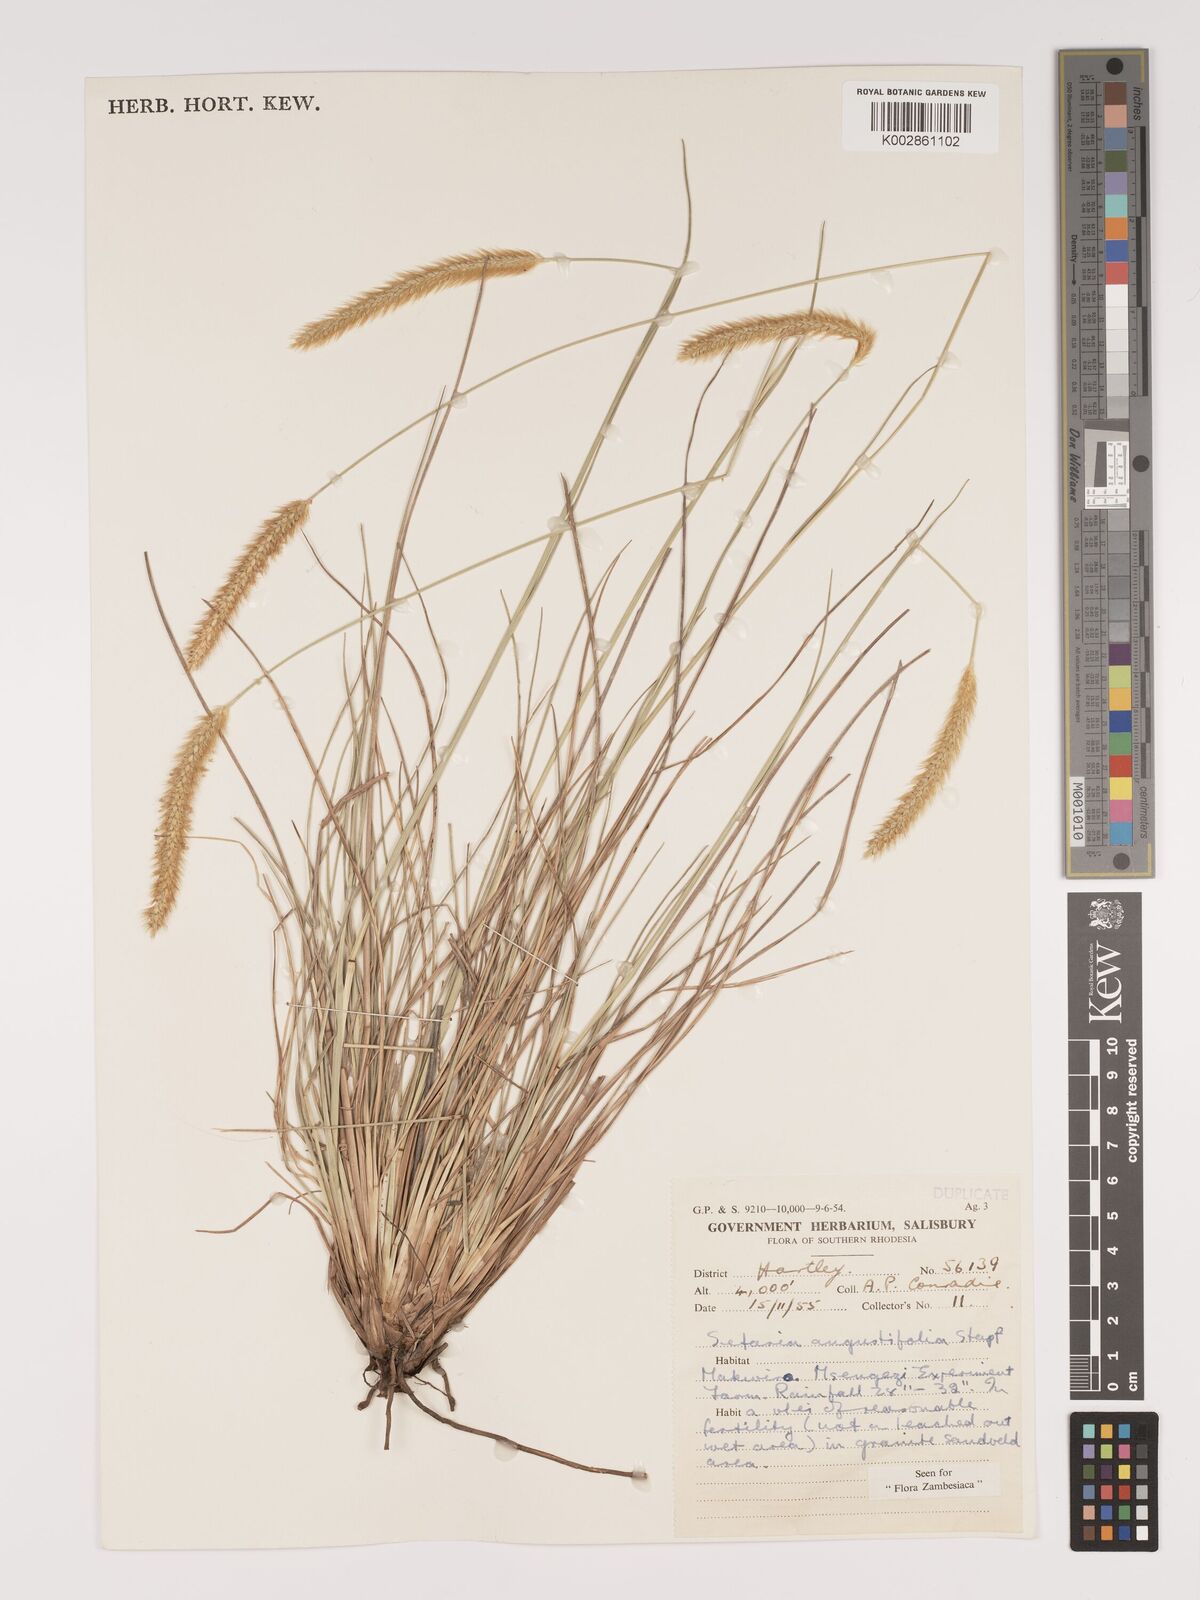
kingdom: Plantae
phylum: Tracheophyta
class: Liliopsida
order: Poales
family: Poaceae
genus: Setaria
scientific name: Setaria sphacelata
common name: African bristlegrass
